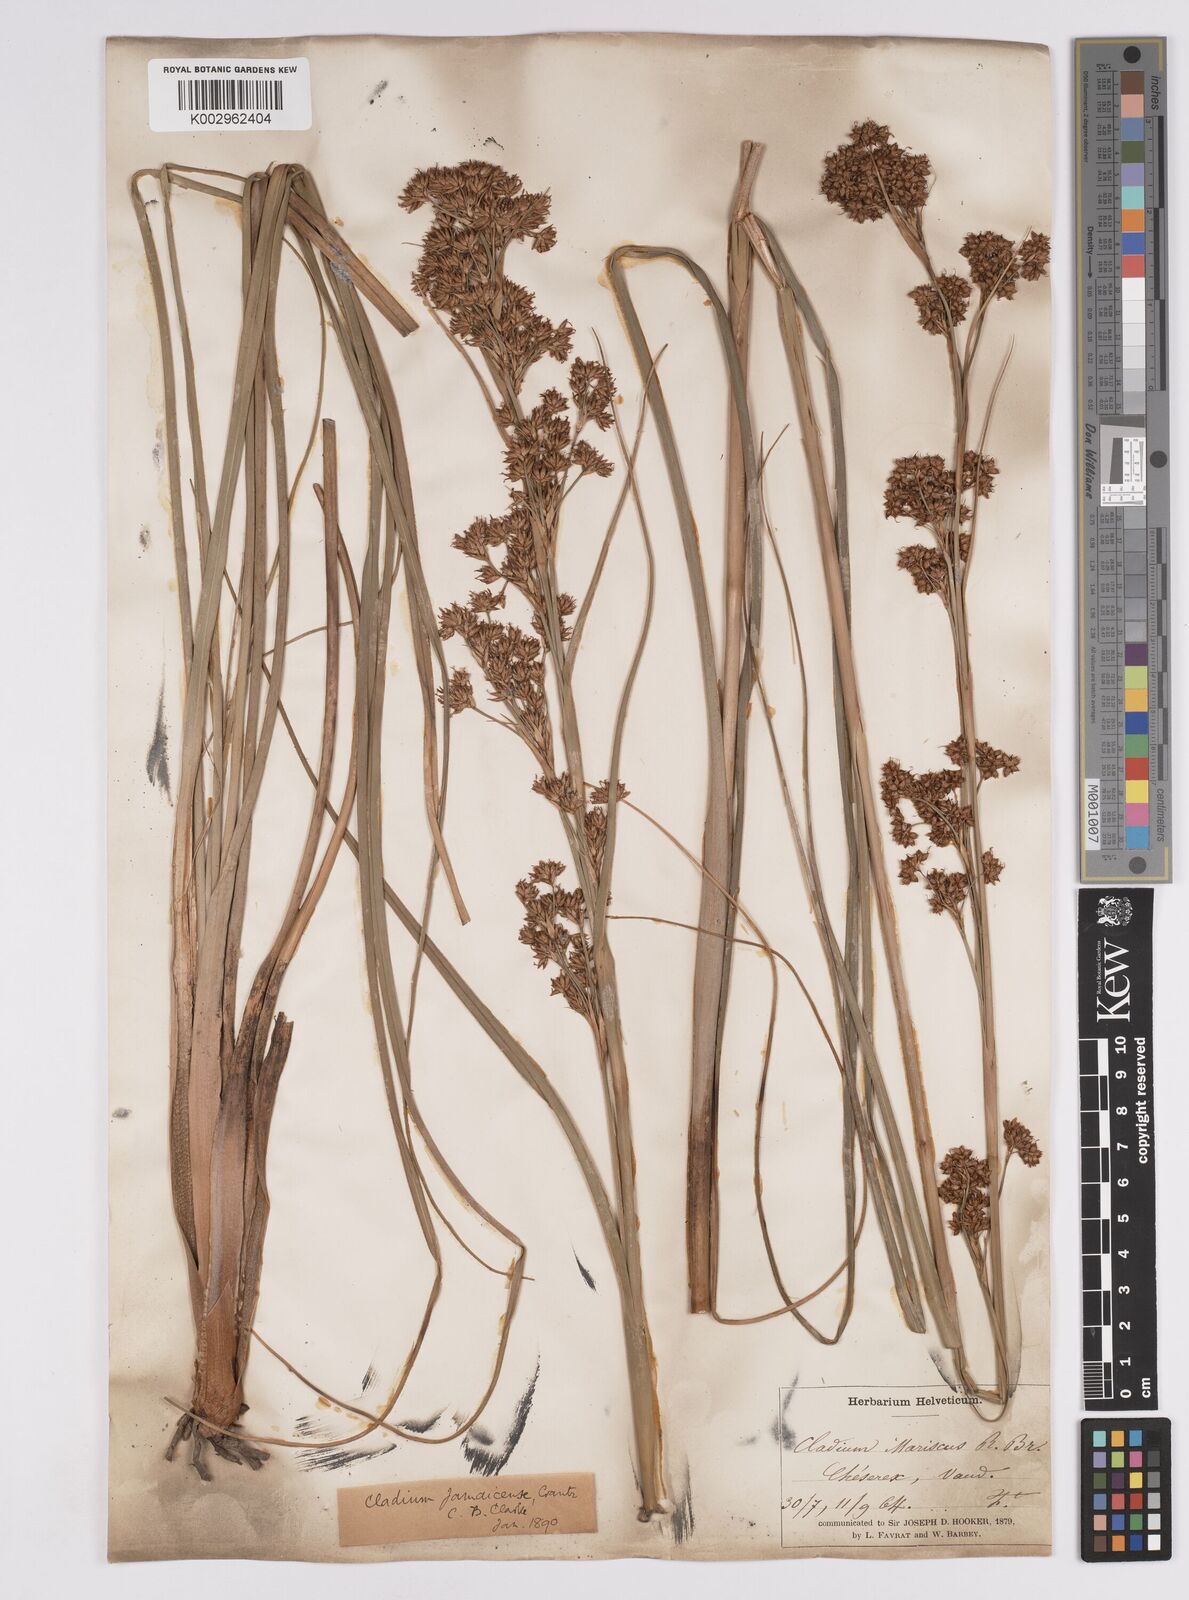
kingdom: Plantae
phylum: Tracheophyta
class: Liliopsida
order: Poales
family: Cyperaceae
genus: Cladium
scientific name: Cladium mariscus
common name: Great fen-sedge
